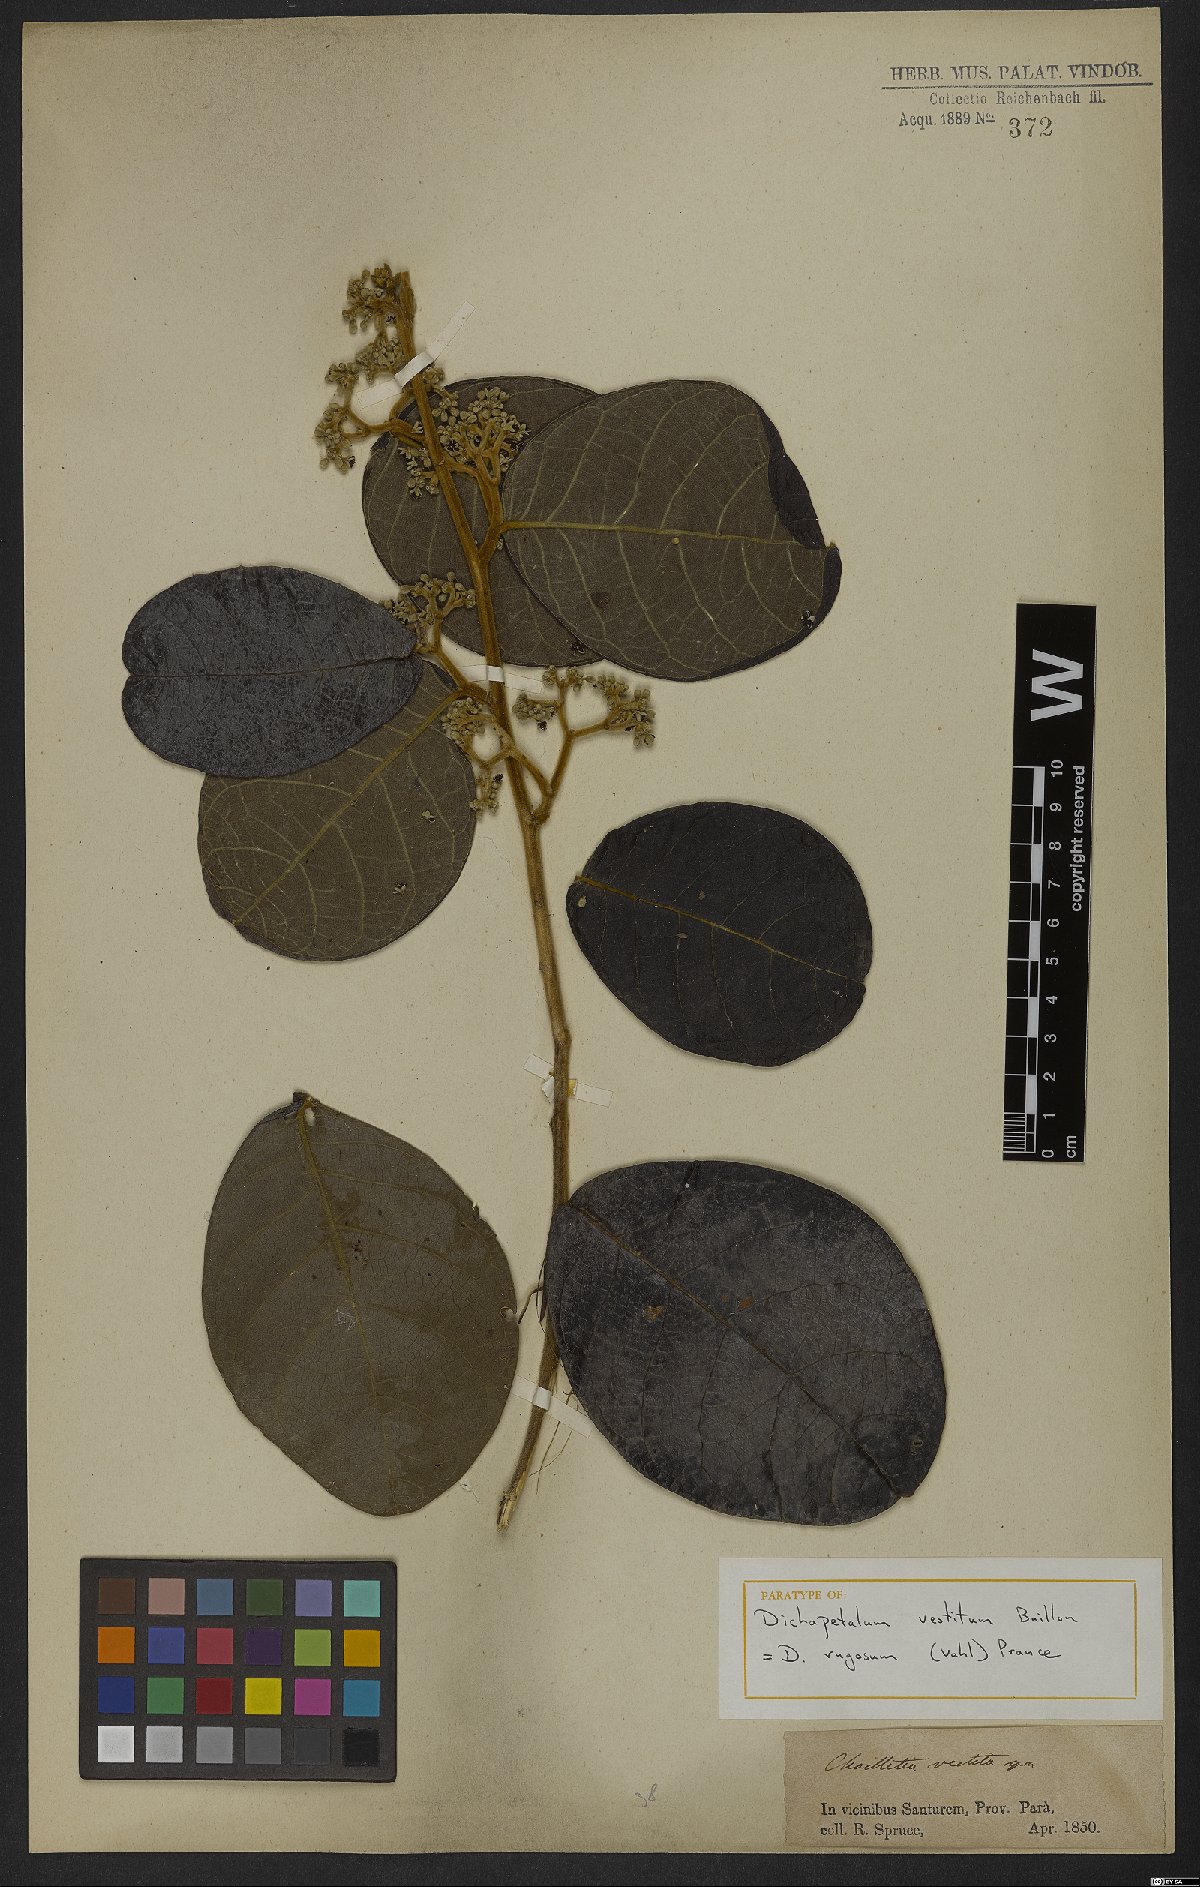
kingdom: Plantae
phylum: Tracheophyta
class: Magnoliopsida
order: Malpighiales
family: Dichapetalaceae
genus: Dichapetalum
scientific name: Dichapetalum rugosum
